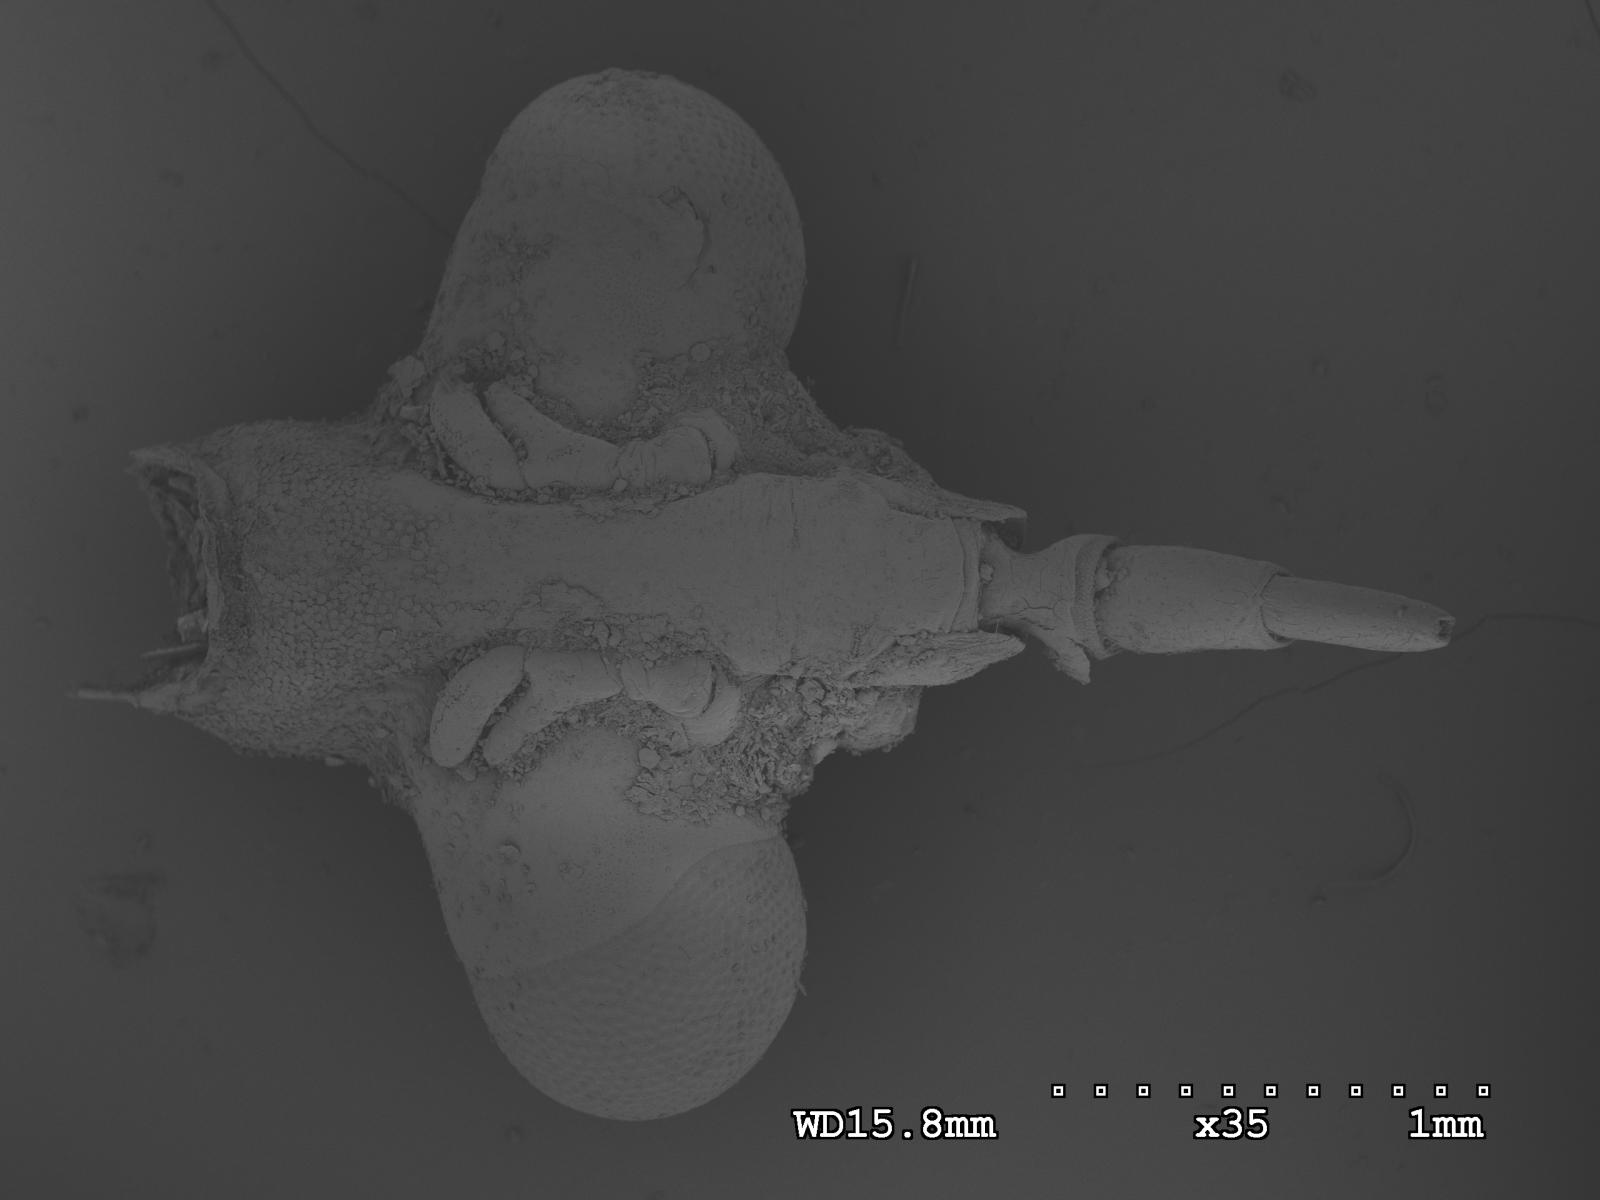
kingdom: Animalia
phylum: Arthropoda
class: Insecta
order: Hemiptera
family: Nepidae
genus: Ranatra
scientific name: Ranatra
